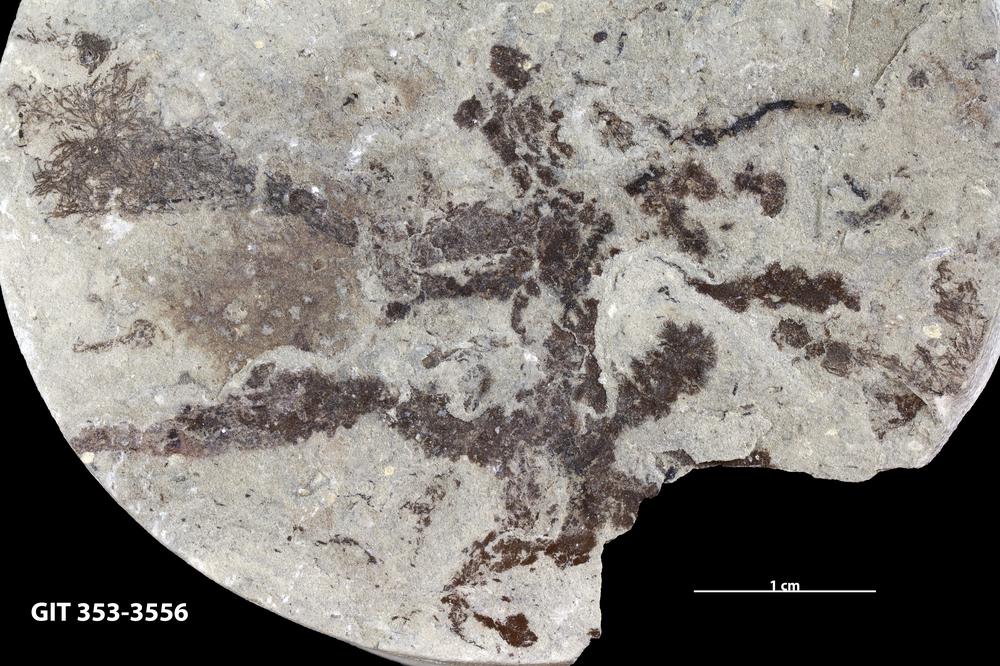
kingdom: Plantae
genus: Leveilleites
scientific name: Leveilleites hartnageli
